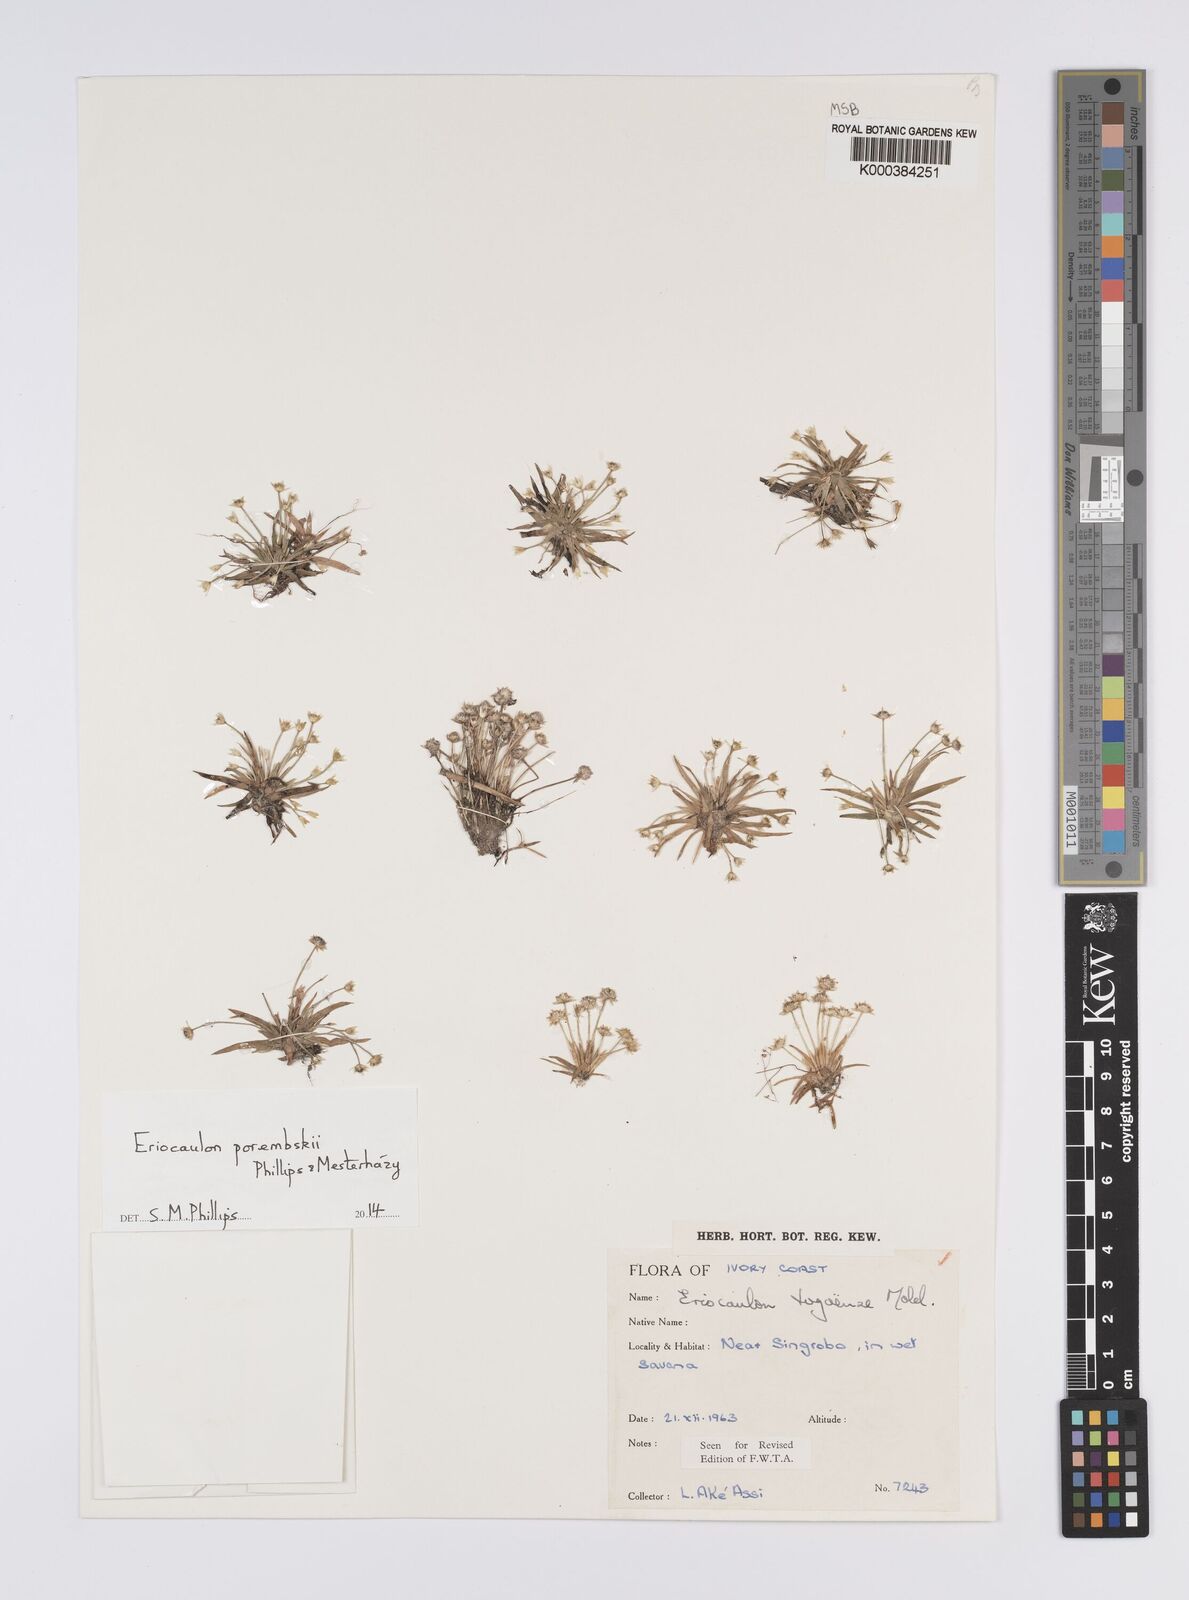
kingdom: Plantae
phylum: Tracheophyta
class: Liliopsida
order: Poales
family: Eriocaulaceae
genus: Eriocaulon
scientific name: Eriocaulon togoense
